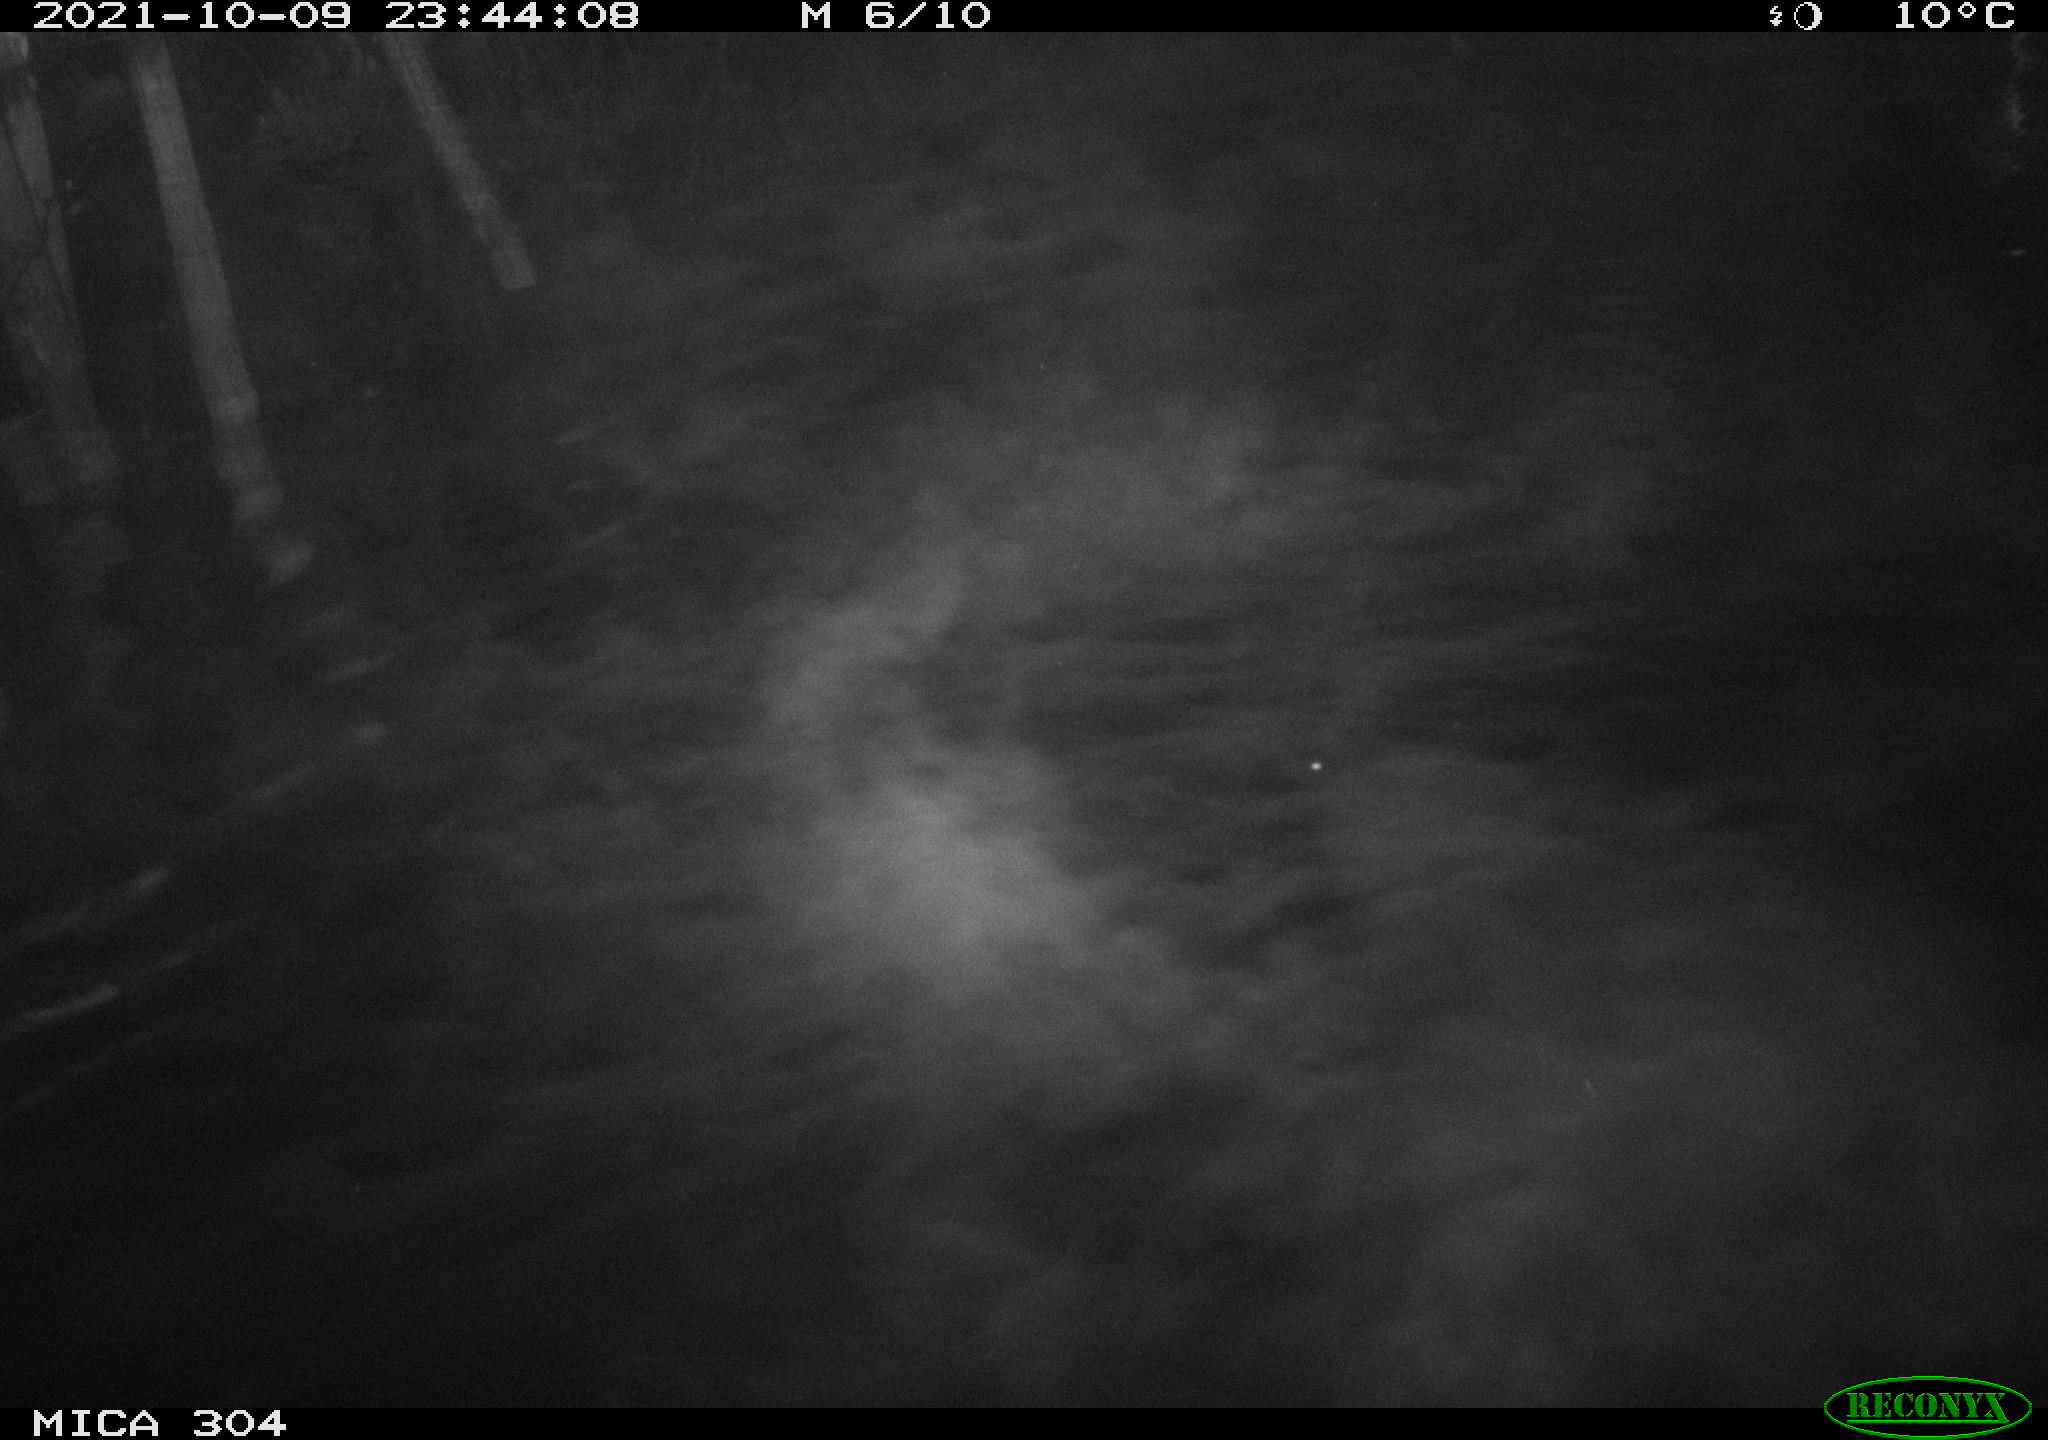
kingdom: Animalia
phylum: Chordata
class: Mammalia
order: Rodentia
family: Cricetidae
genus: Ondatra
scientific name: Ondatra zibethicus
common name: Muskrat
